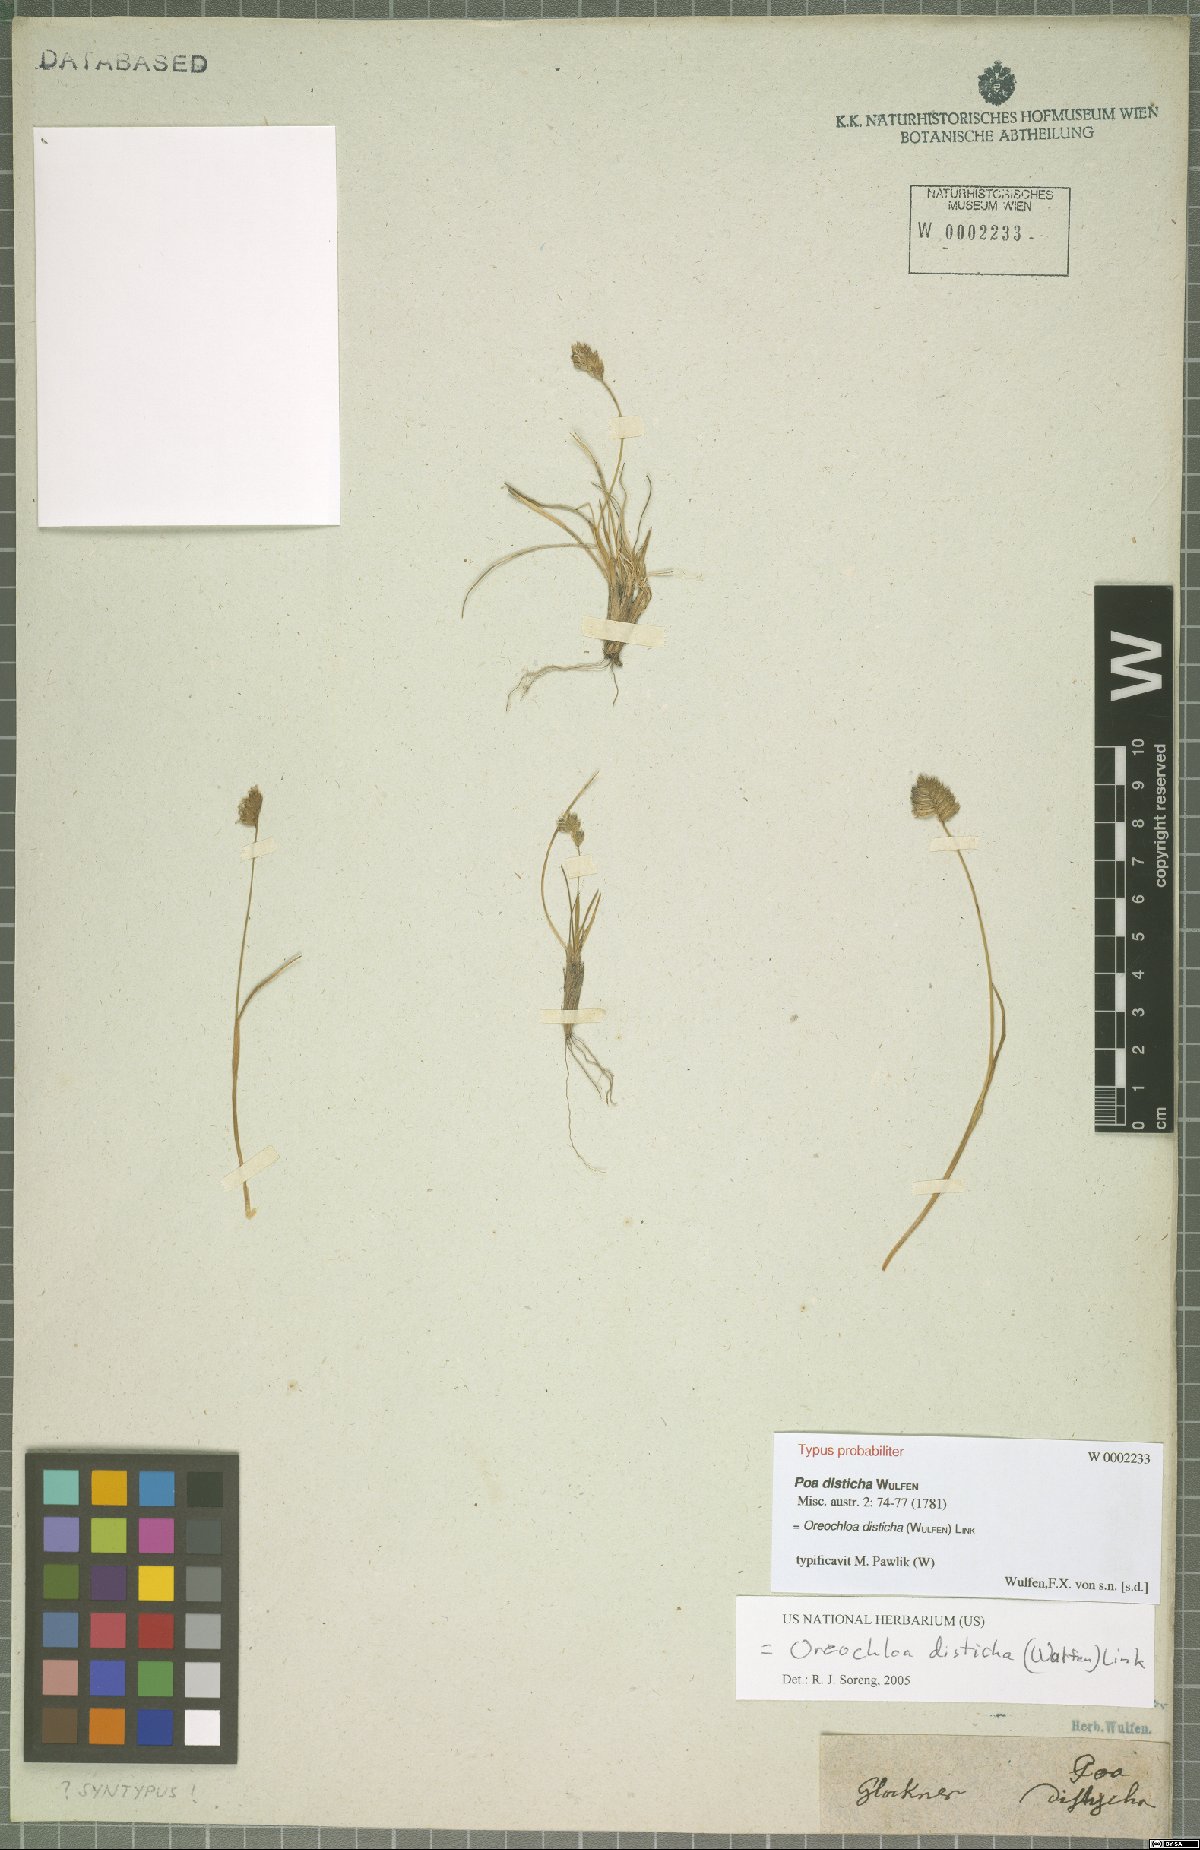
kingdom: Plantae
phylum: Tracheophyta
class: Liliopsida
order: Poales
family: Poaceae
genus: Oreochloa
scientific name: Oreochloa disticha
